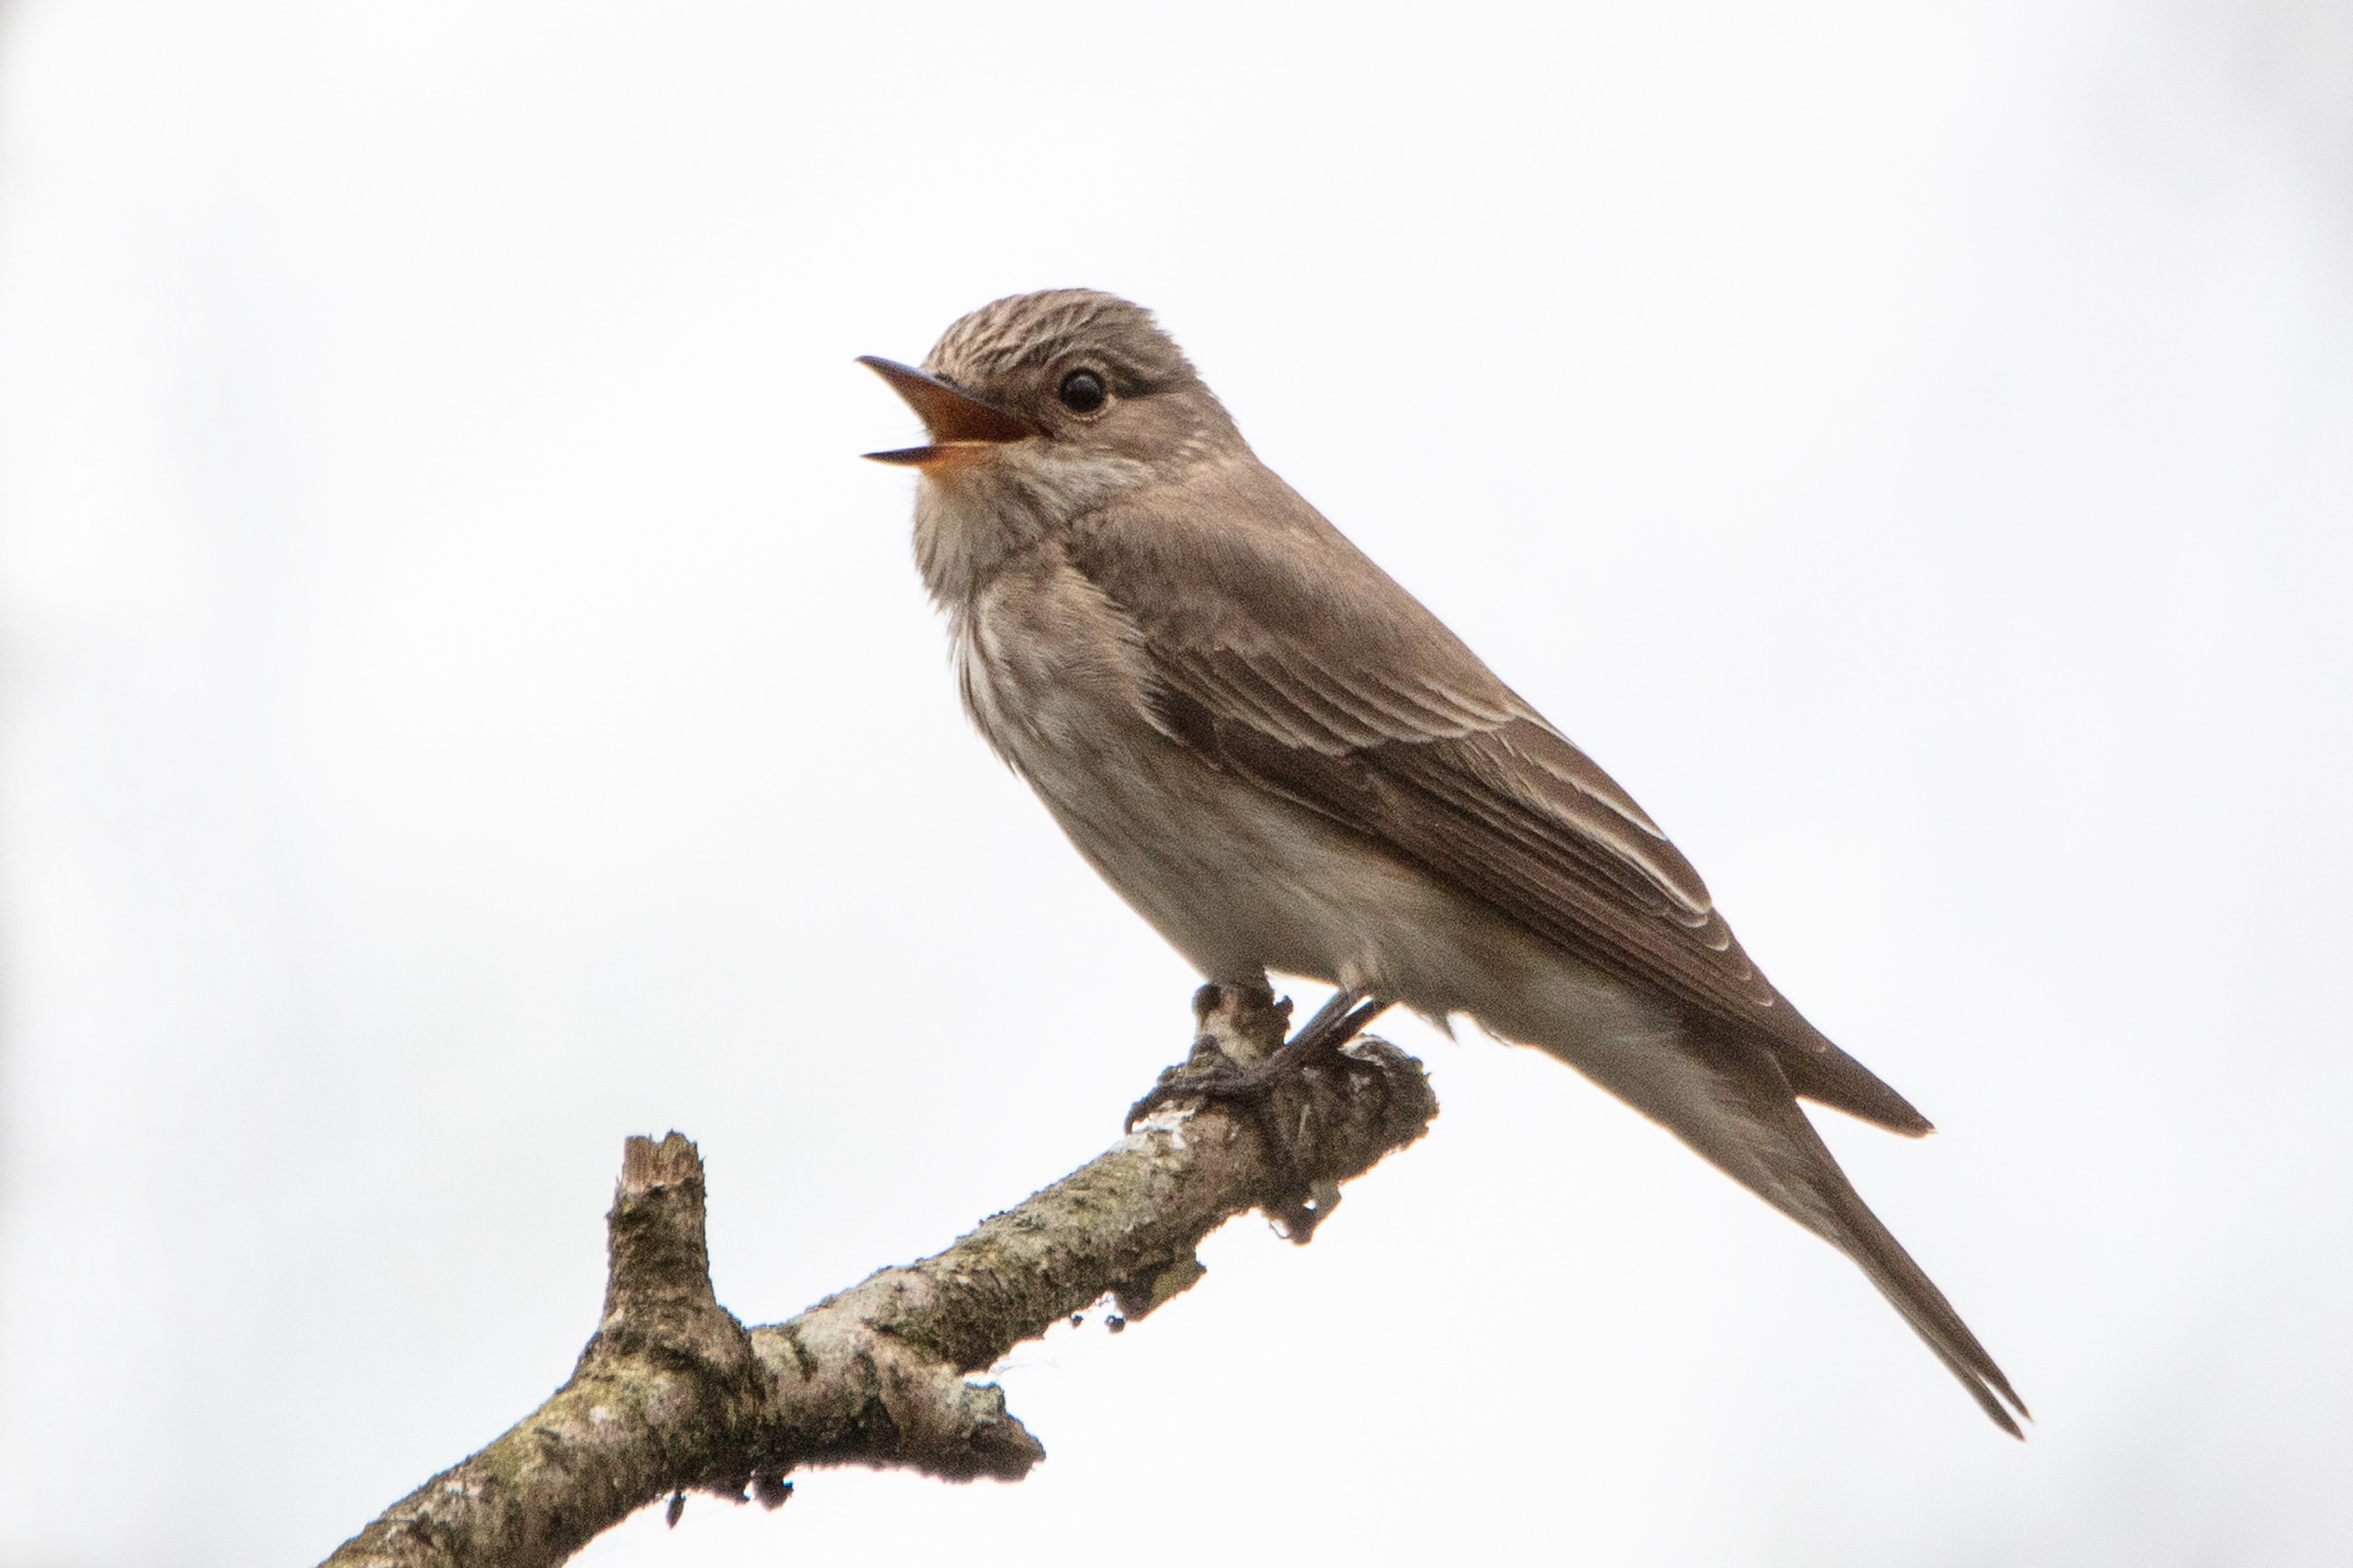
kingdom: Animalia
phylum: Chordata
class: Aves
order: Passeriformes
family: Muscicapidae
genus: Muscicapa
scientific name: Muscicapa striata
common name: Grå fluesnapper
